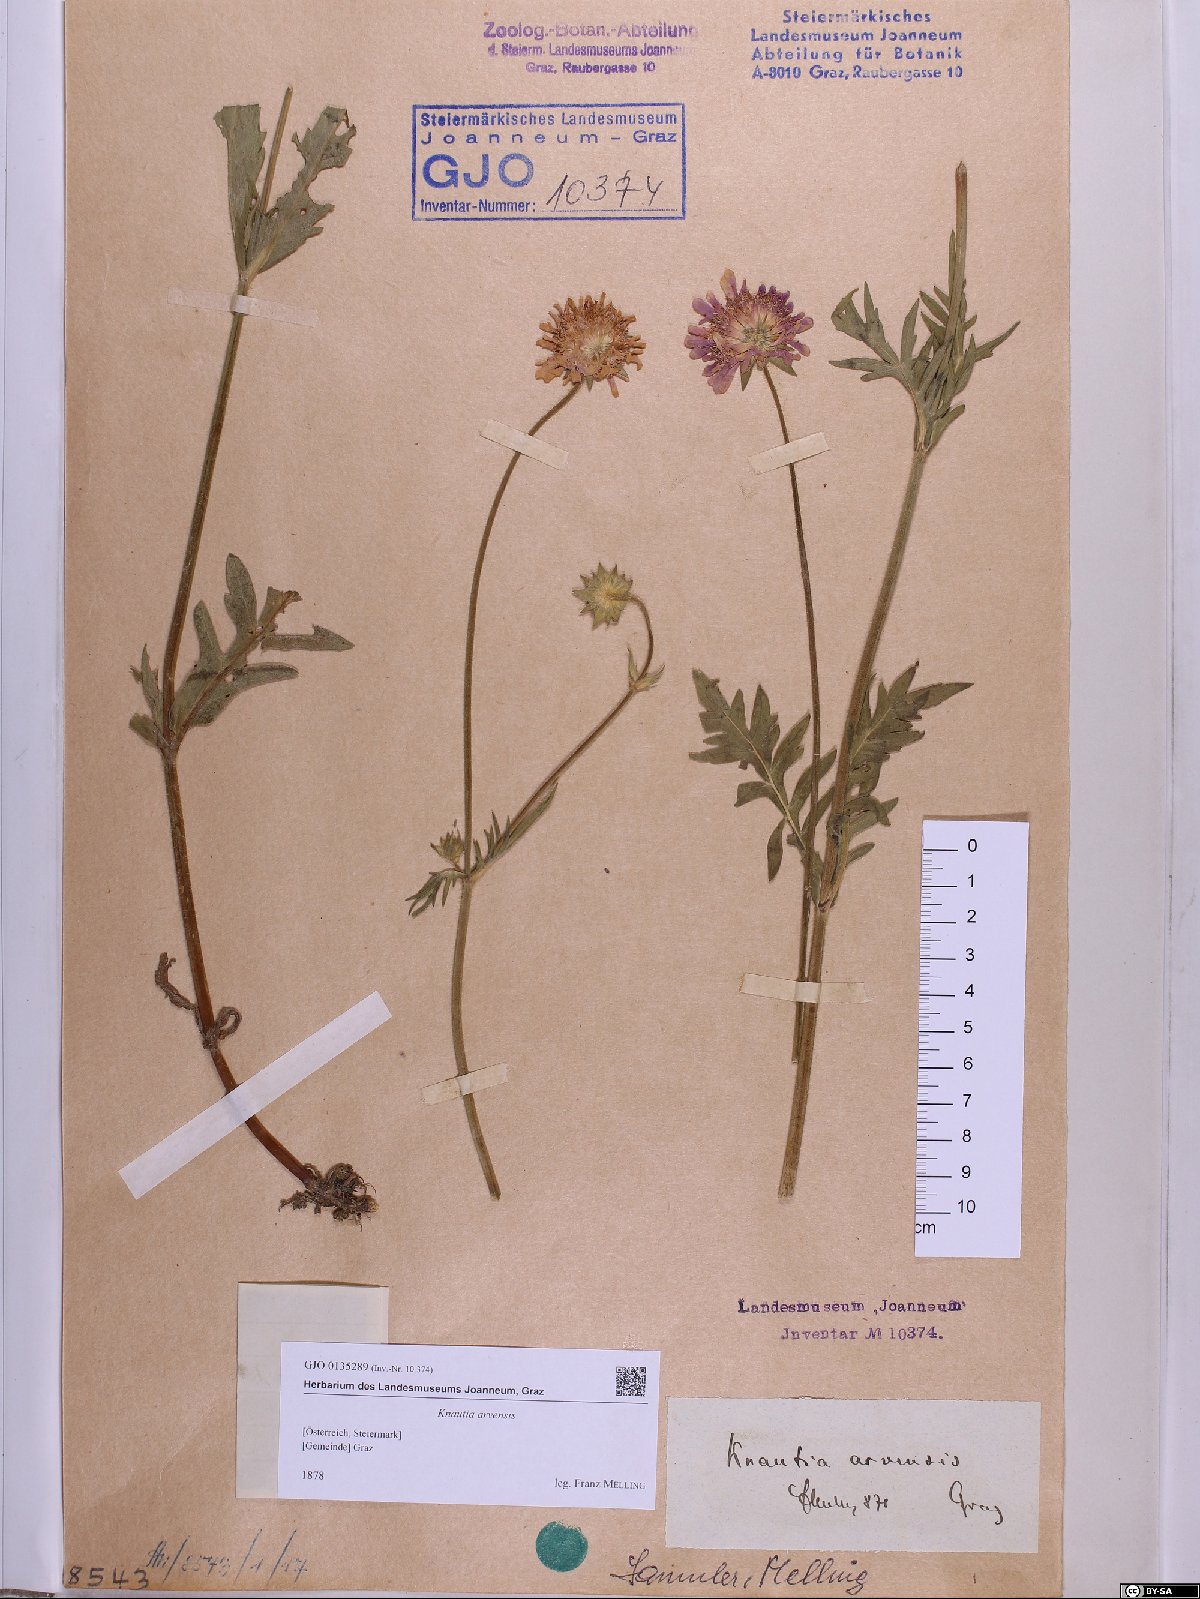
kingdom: Plantae
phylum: Tracheophyta
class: Magnoliopsida
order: Dipsacales
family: Caprifoliaceae
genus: Knautia
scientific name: Knautia arvensis
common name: Field scabiosa
